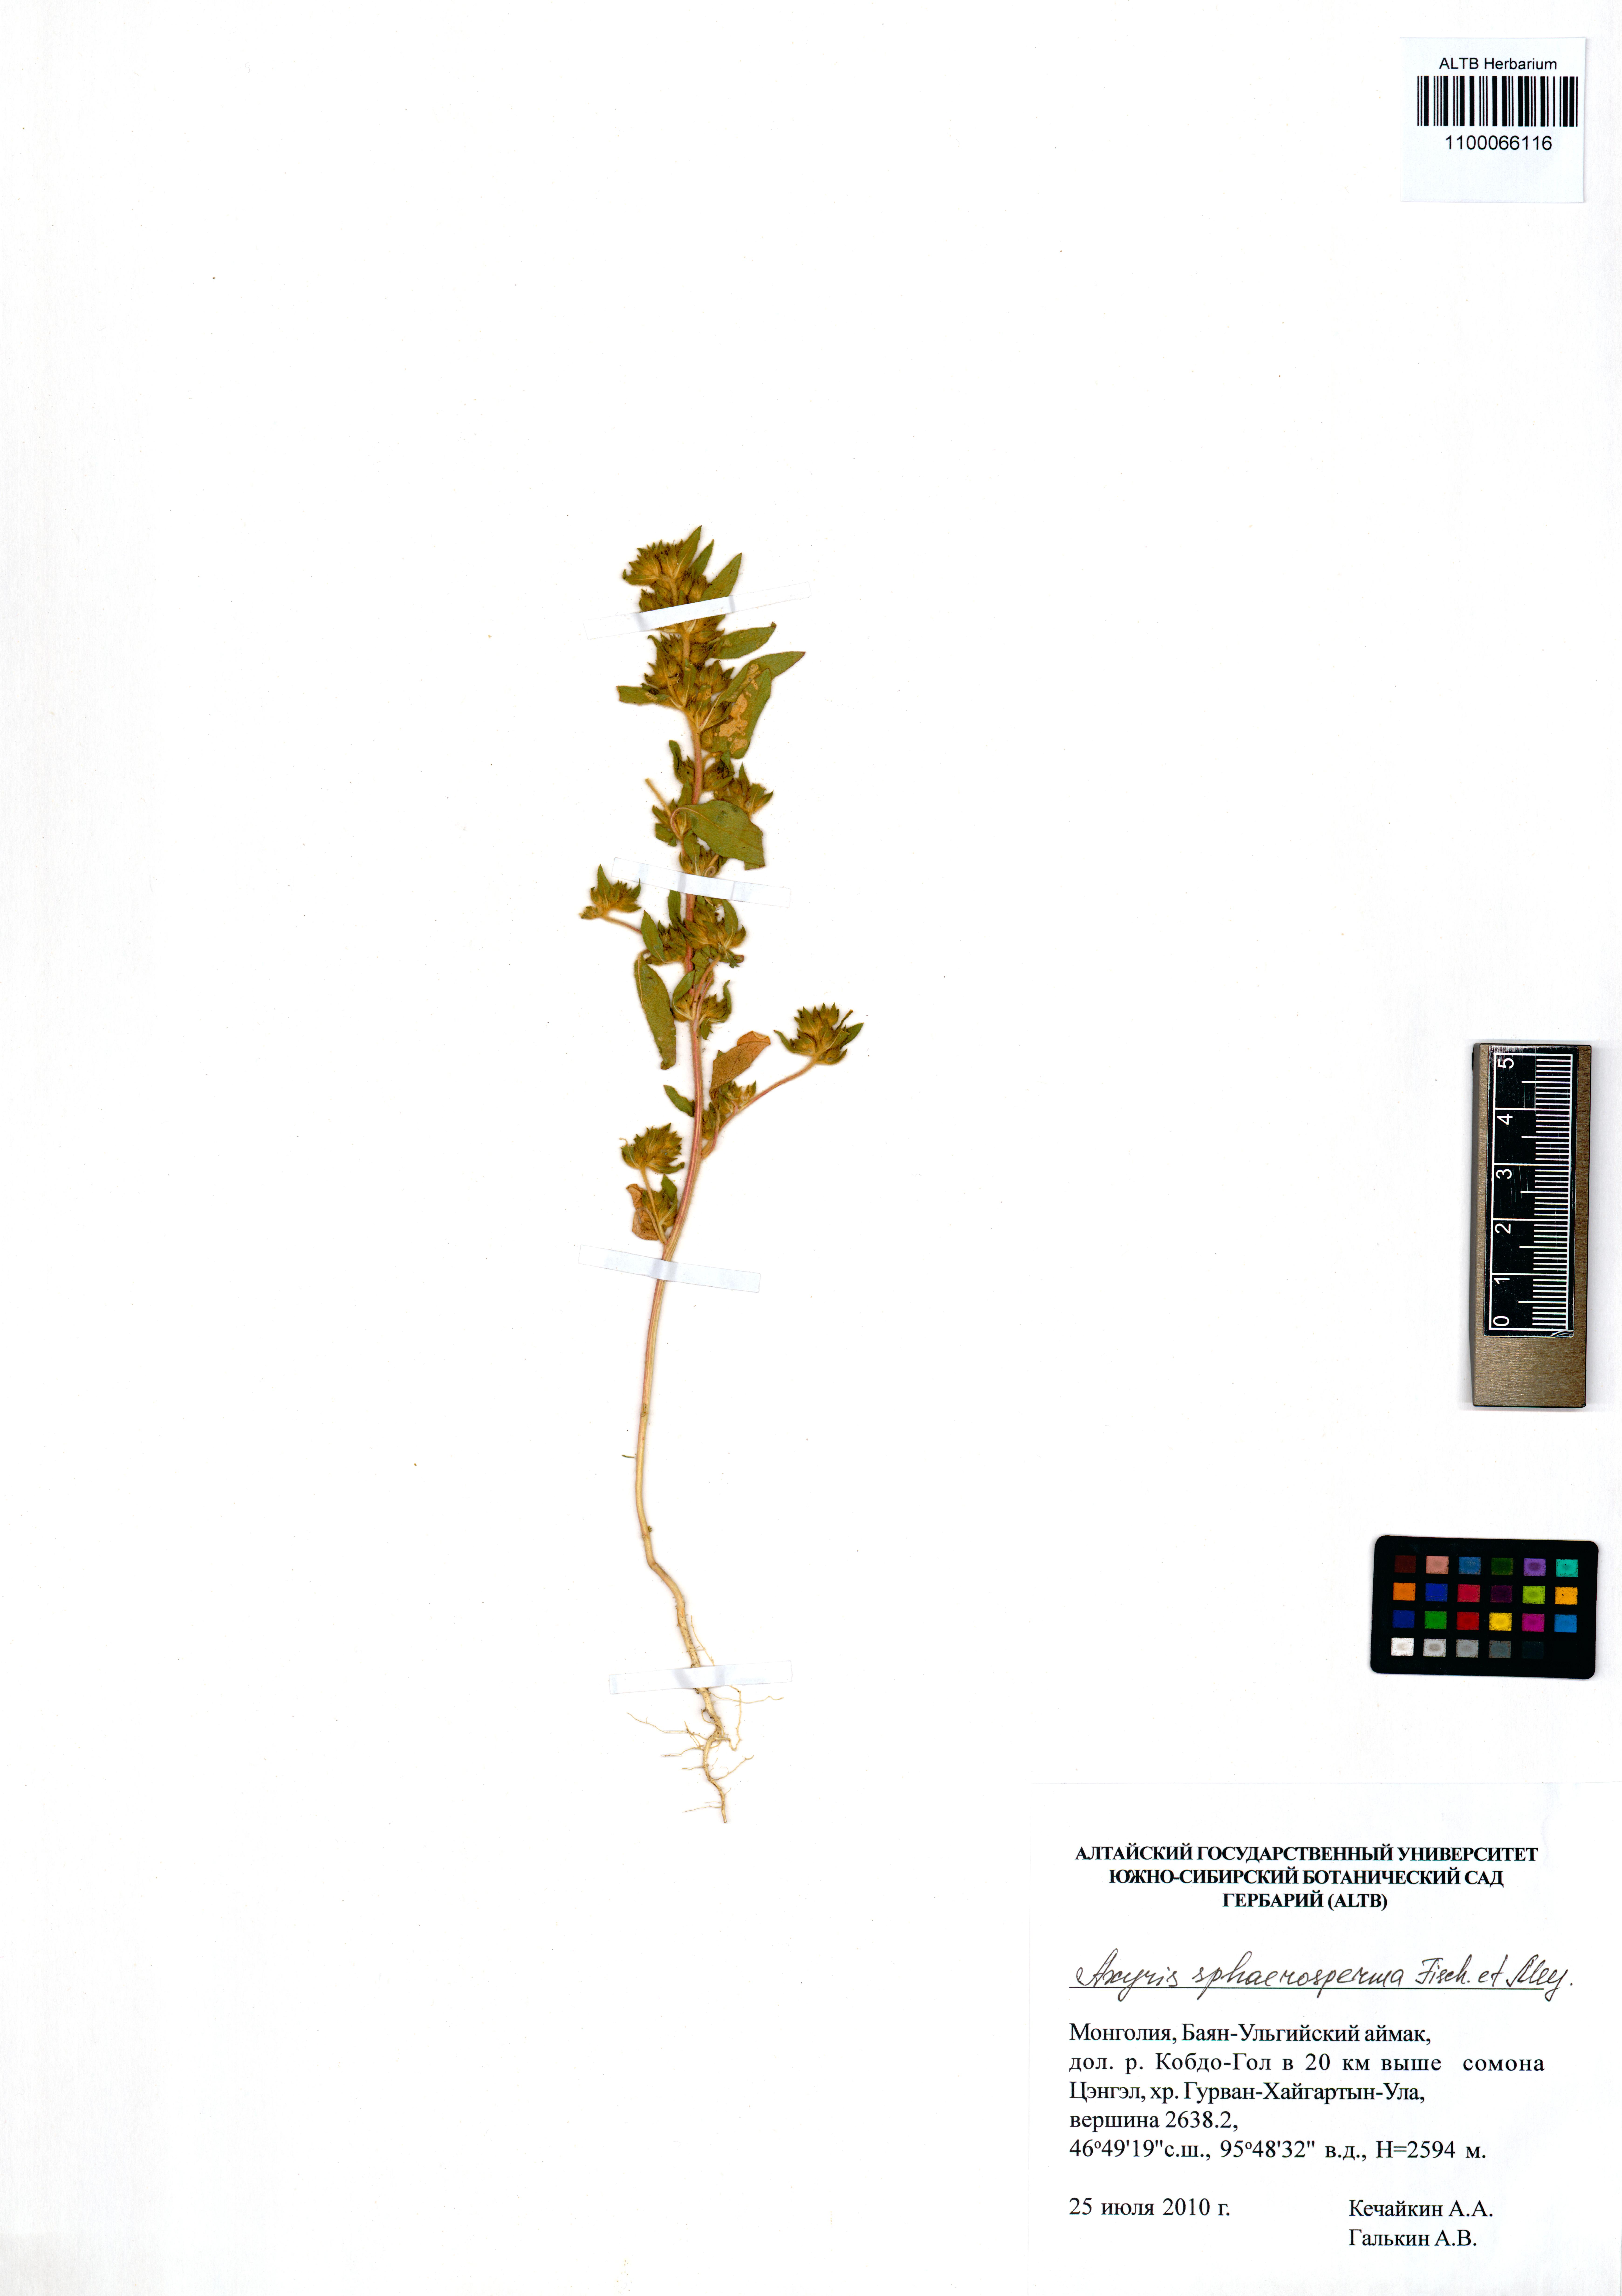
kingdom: Plantae
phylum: Tracheophyta
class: Magnoliopsida
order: Caryophyllales
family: Amaranthaceae
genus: Axyris
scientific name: Axyris sphaerosperma
